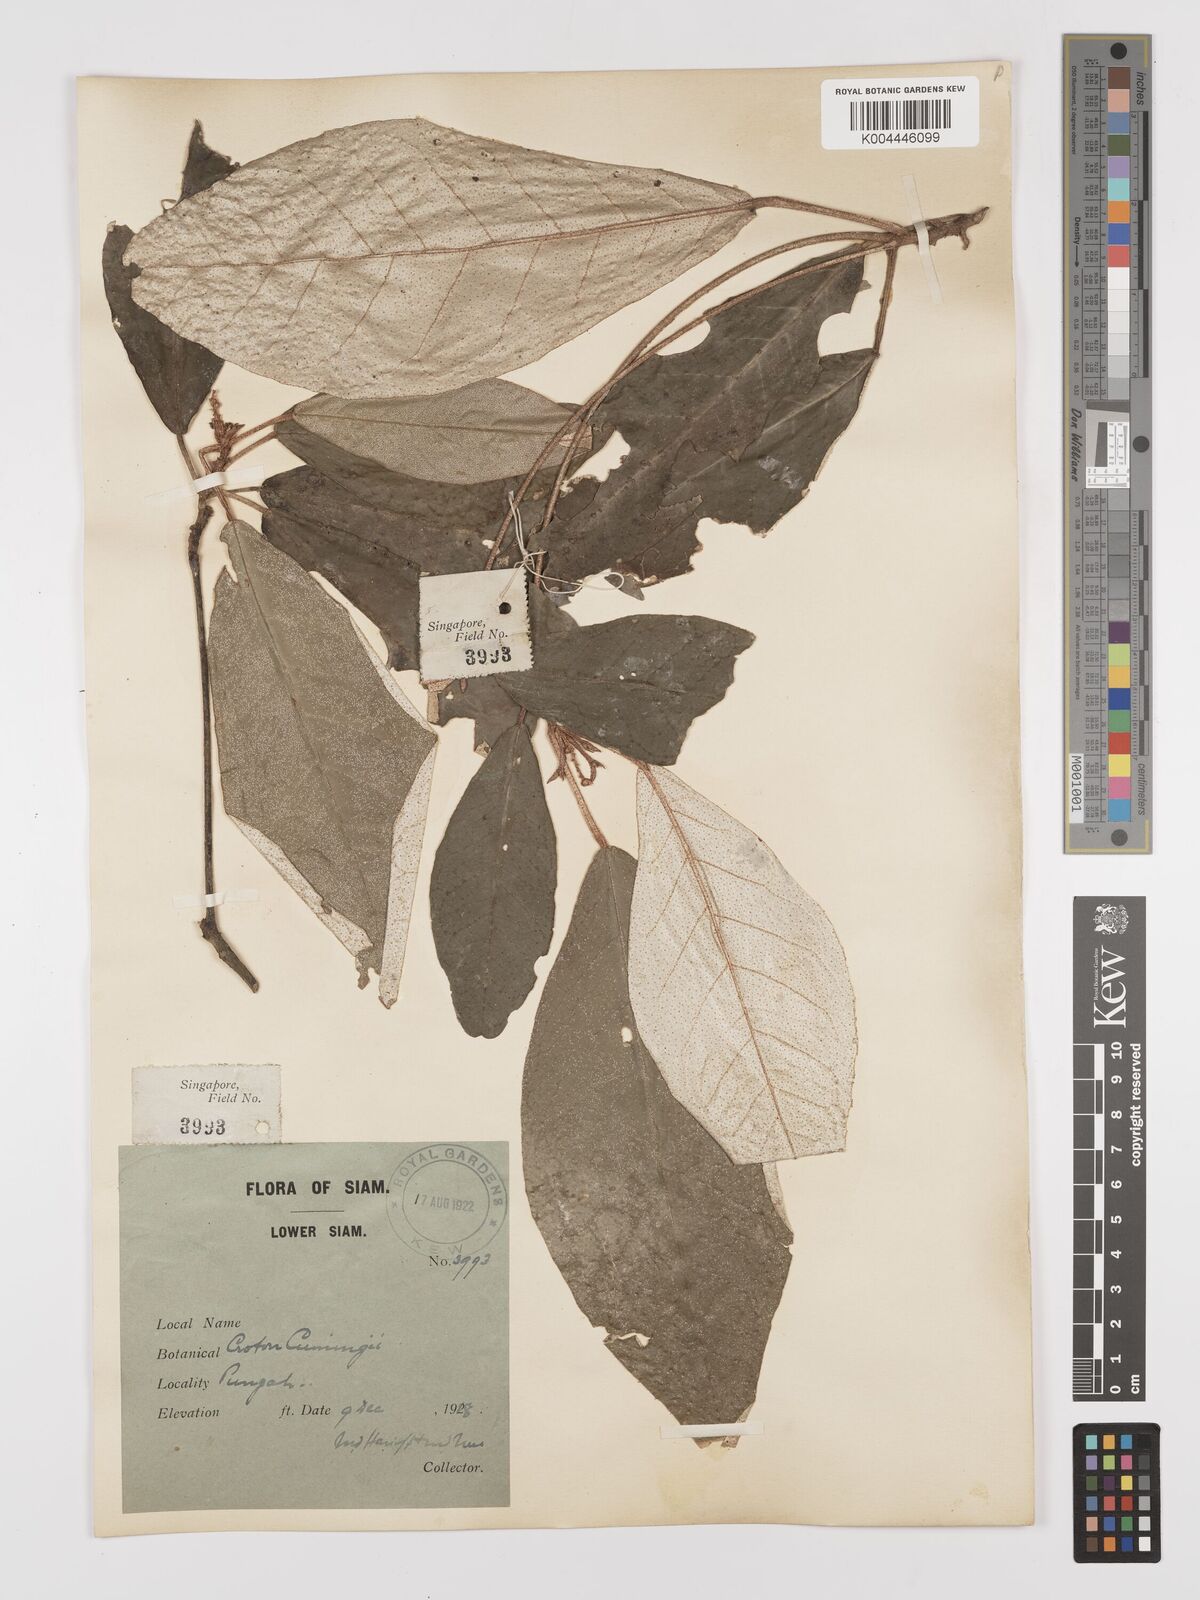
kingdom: Plantae
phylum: Tracheophyta
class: Magnoliopsida
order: Malpighiales
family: Euphorbiaceae
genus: Croton
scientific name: Croton cascarilloides
